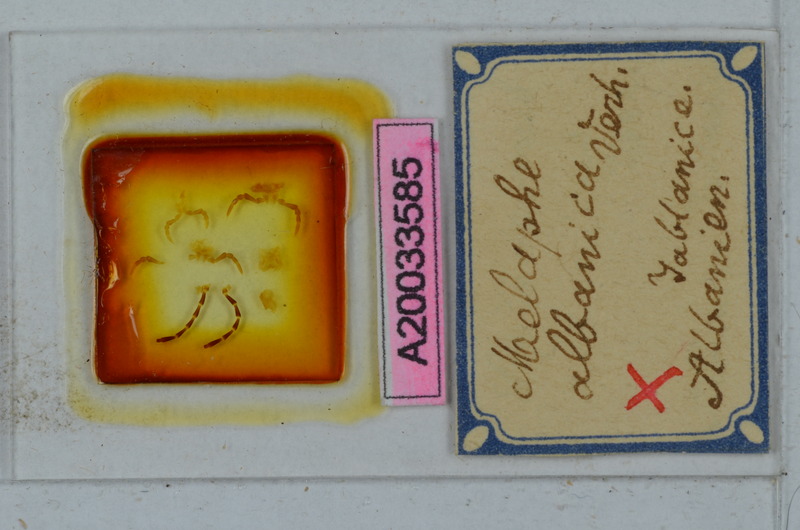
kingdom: Animalia
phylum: Arthropoda
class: Diplopoda
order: Polydesmida
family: Xystodesmidae
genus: Ochridaphe
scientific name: Ochridaphe albanica
